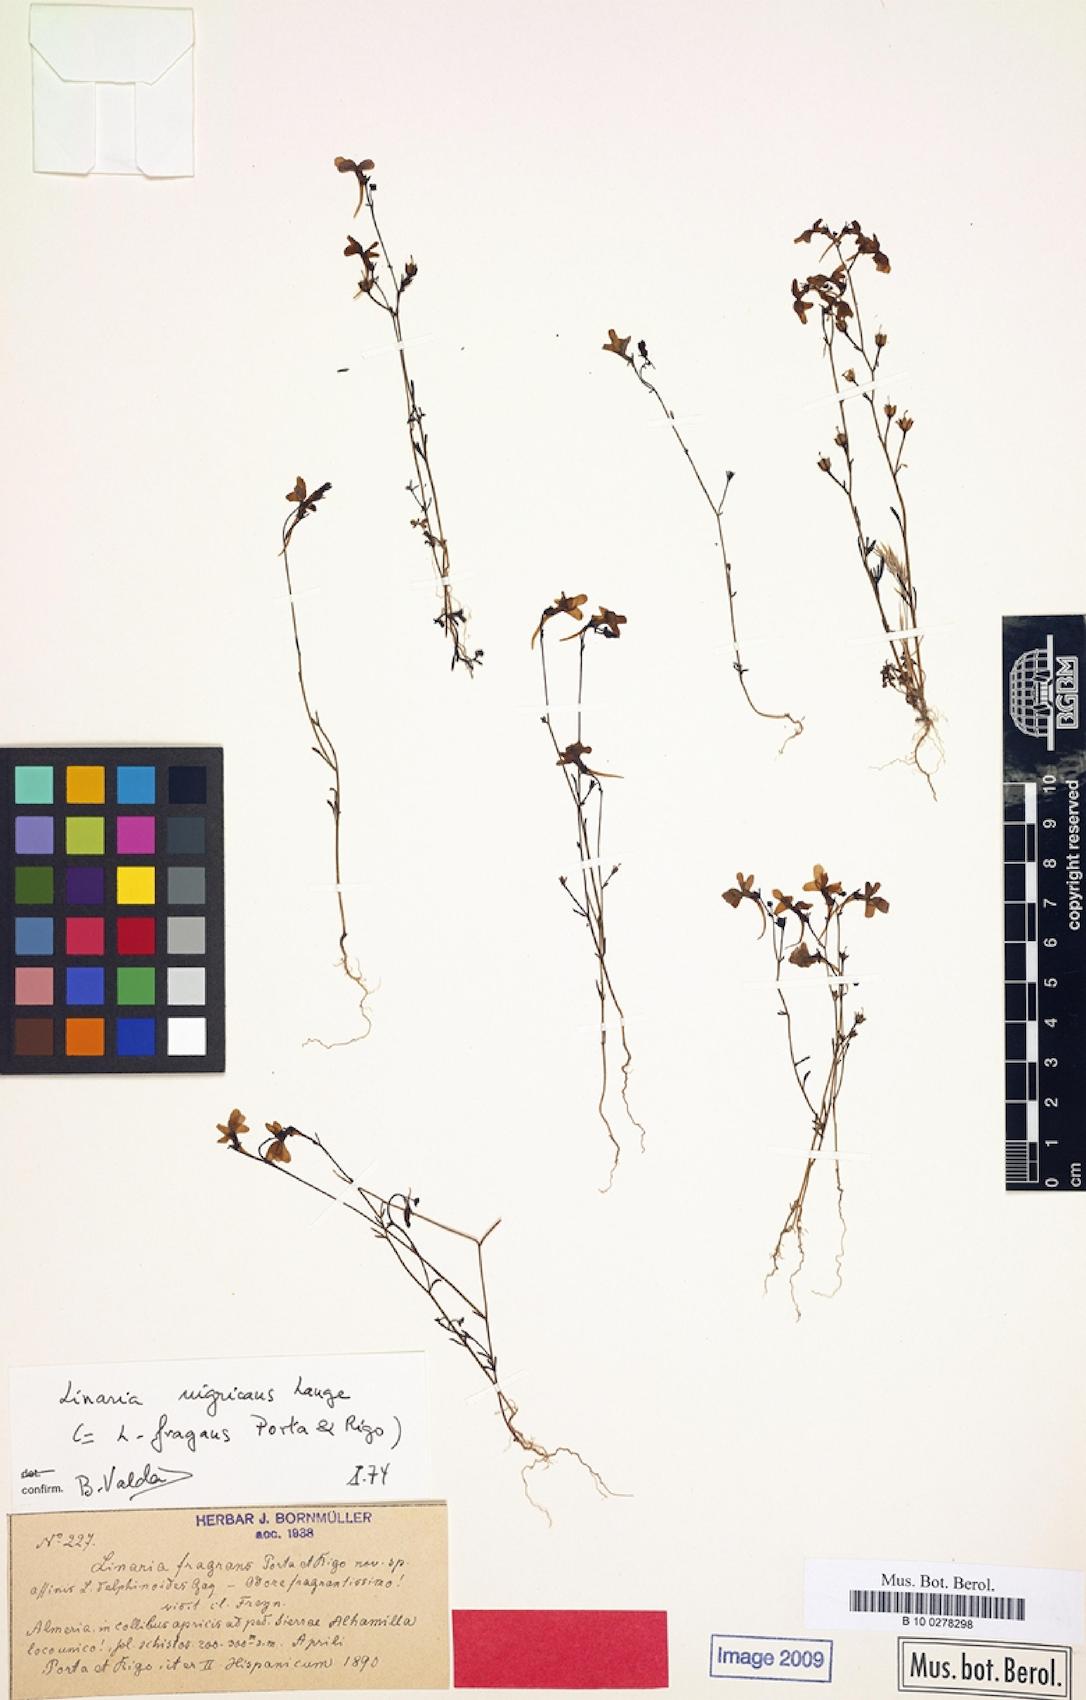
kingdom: Plantae
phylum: Tracheophyta
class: Magnoliopsida
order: Lamiales
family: Plantaginaceae
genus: Linaria
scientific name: Linaria nigricans
